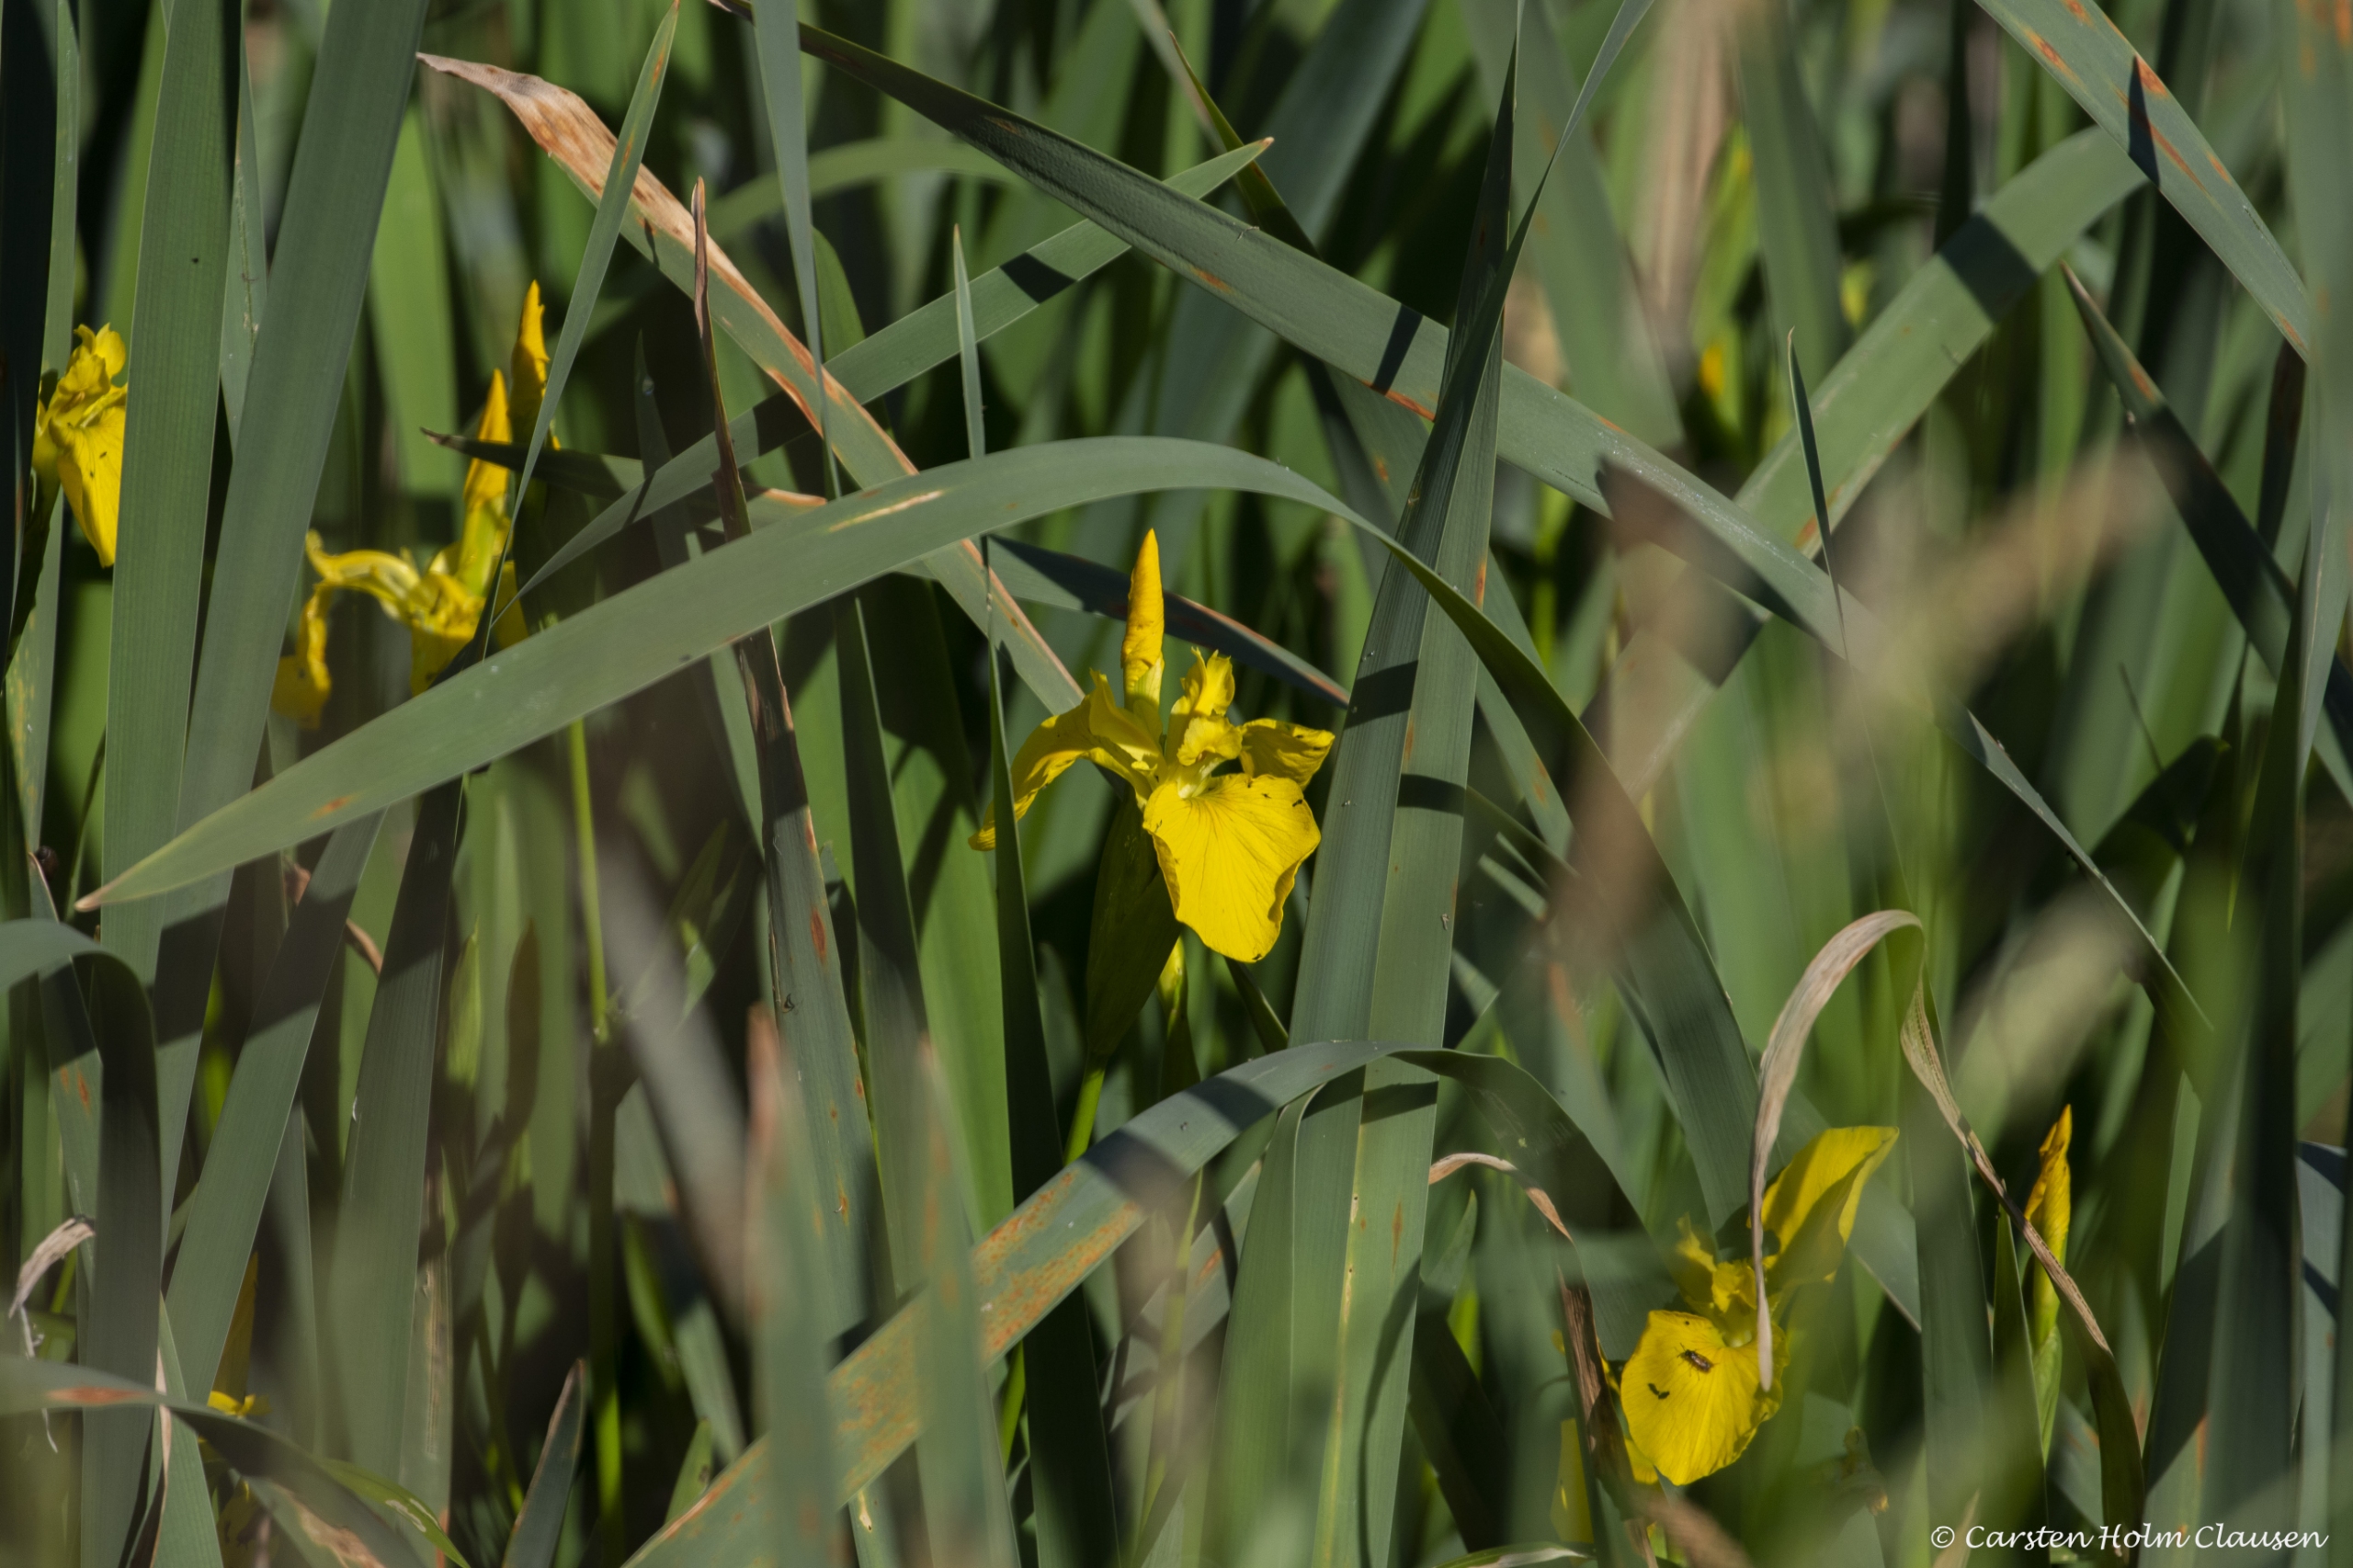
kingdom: Plantae
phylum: Tracheophyta
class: Liliopsida
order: Asparagales
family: Iridaceae
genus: Iris
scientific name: Iris pseudacorus
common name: Gul iris
